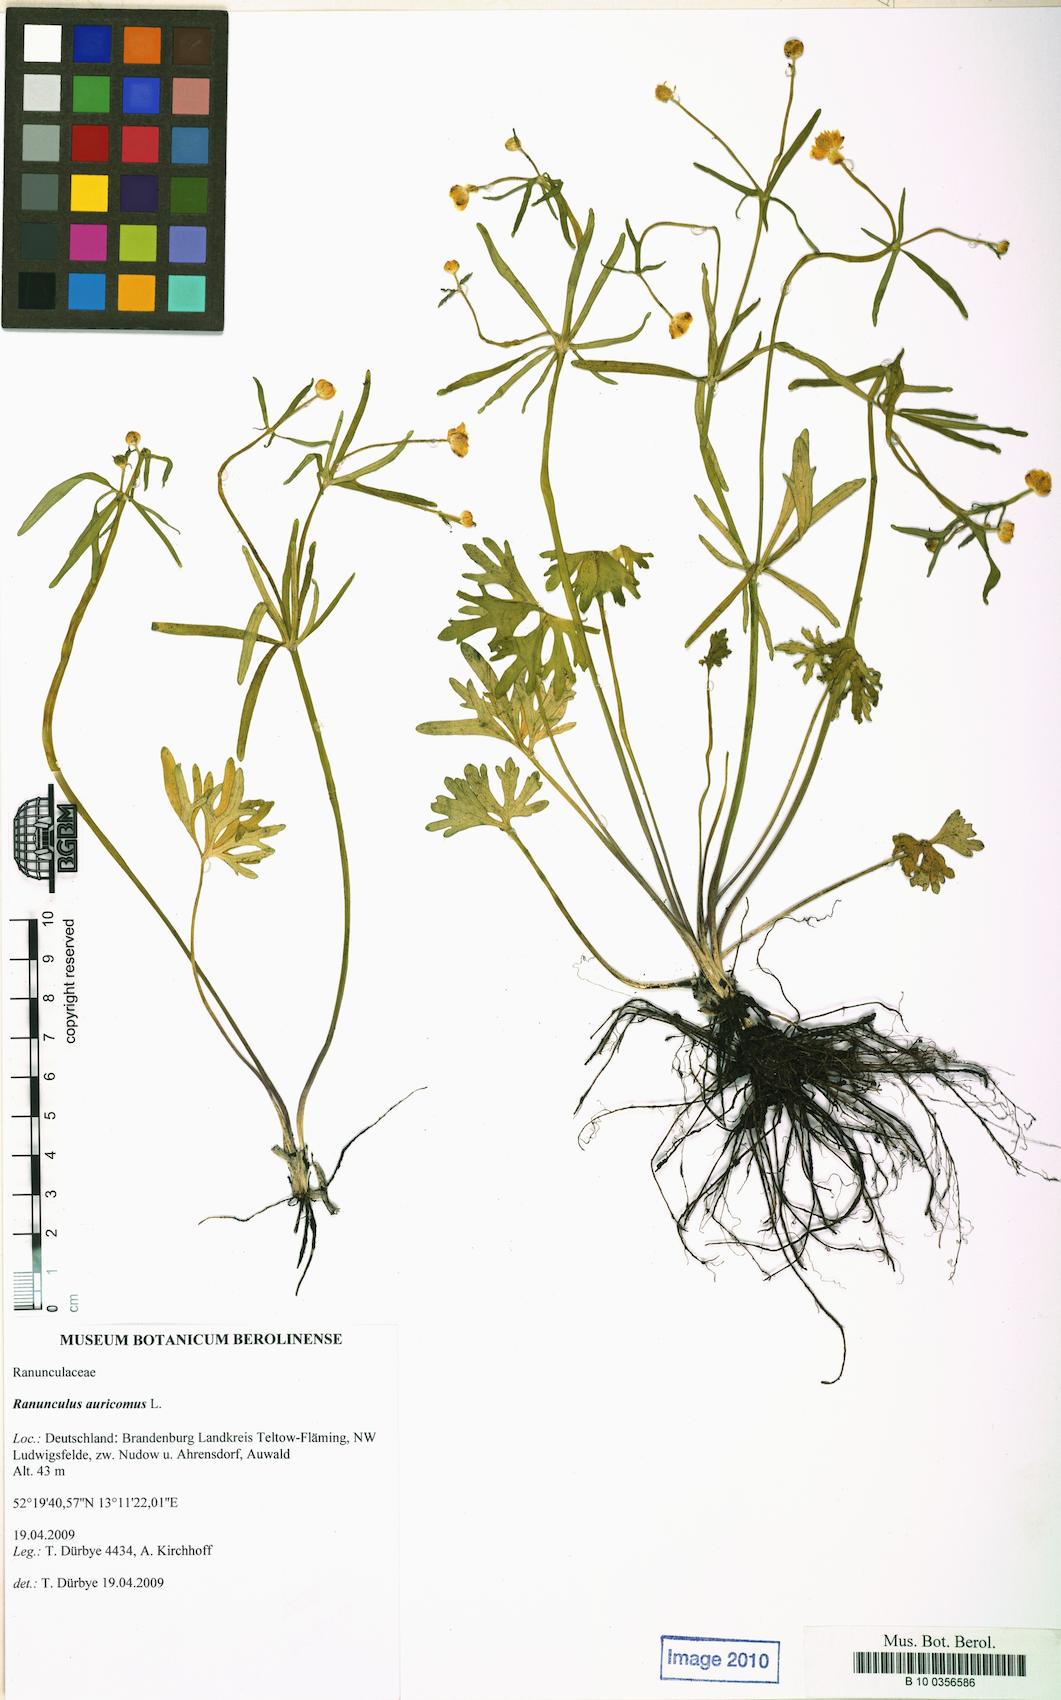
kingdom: Plantae
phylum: Tracheophyta
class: Magnoliopsida
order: Ranunculales
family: Ranunculaceae
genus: Ranunculus
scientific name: Ranunculus auricomus
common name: Goldilocks buttercup
